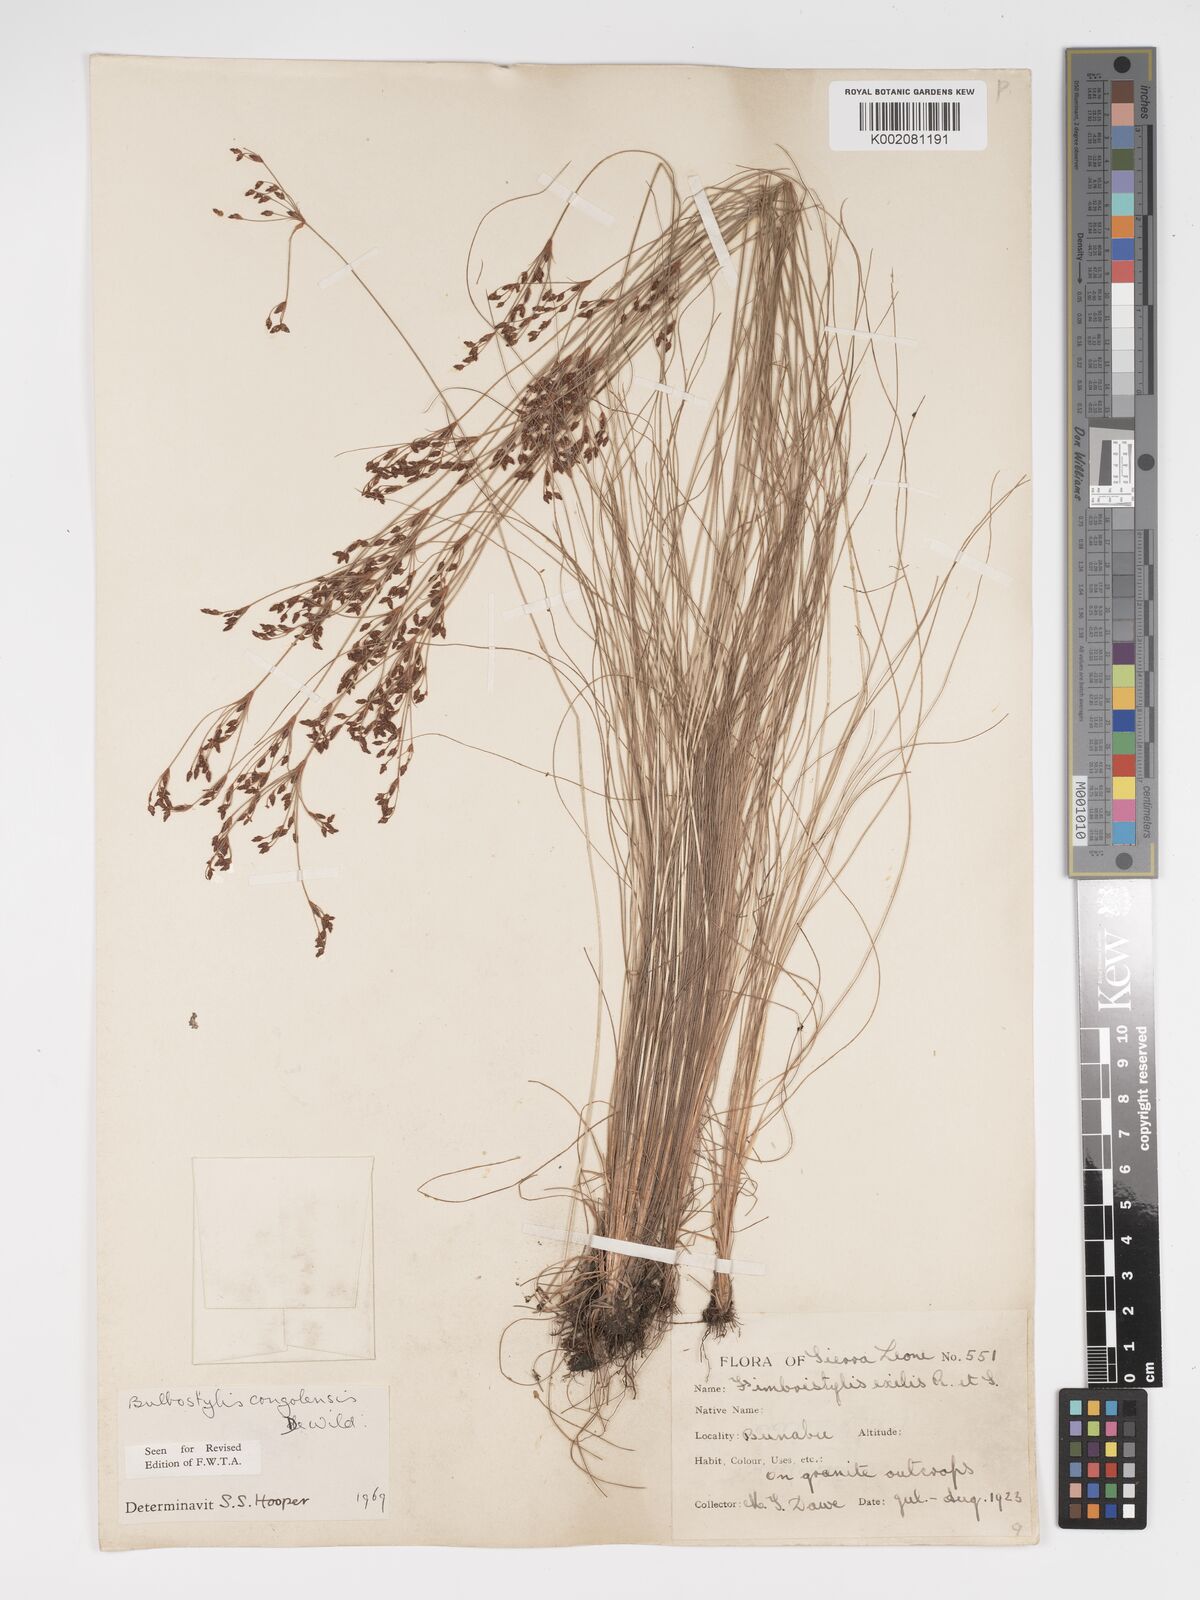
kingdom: Plantae
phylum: Tracheophyta
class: Liliopsida
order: Poales
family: Cyperaceae
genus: Bulbostylis
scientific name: Bulbostylis congolensis
